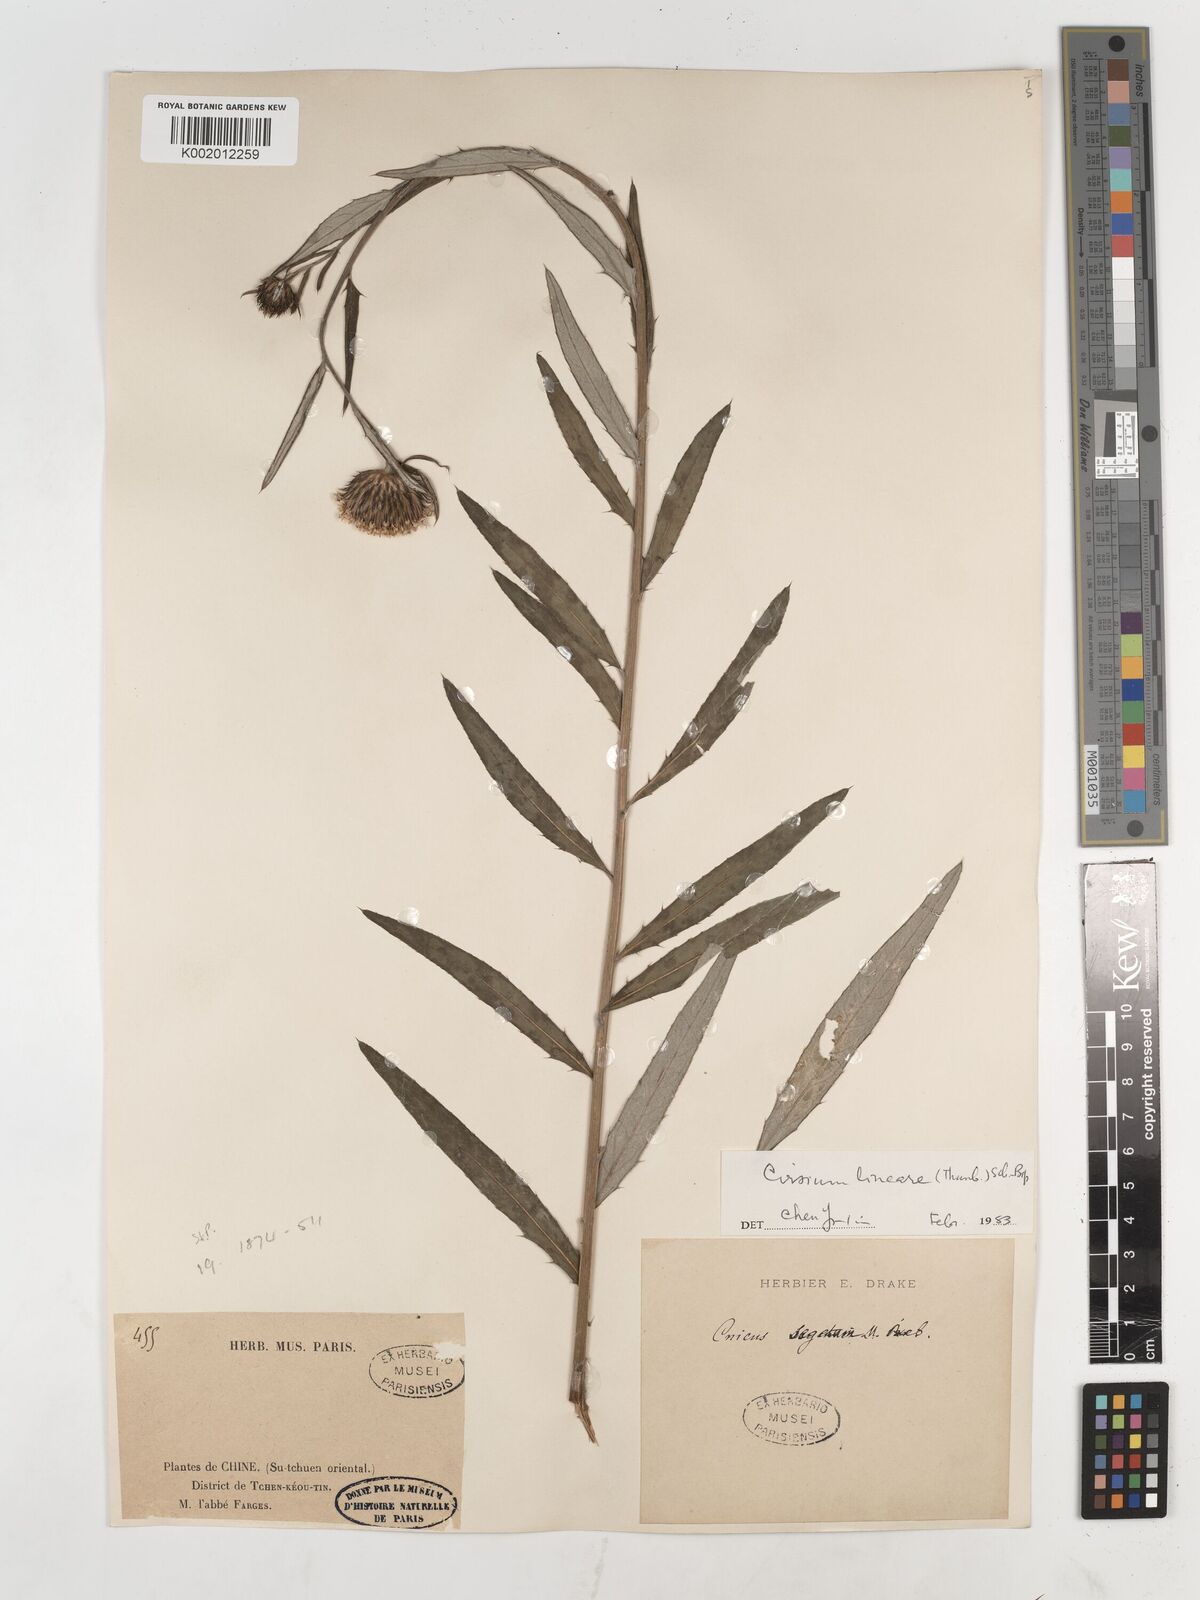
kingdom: Plantae
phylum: Tracheophyta
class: Magnoliopsida
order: Asterales
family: Asteraceae
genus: Cirsium
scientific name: Cirsium arvense
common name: Creeping thistle
